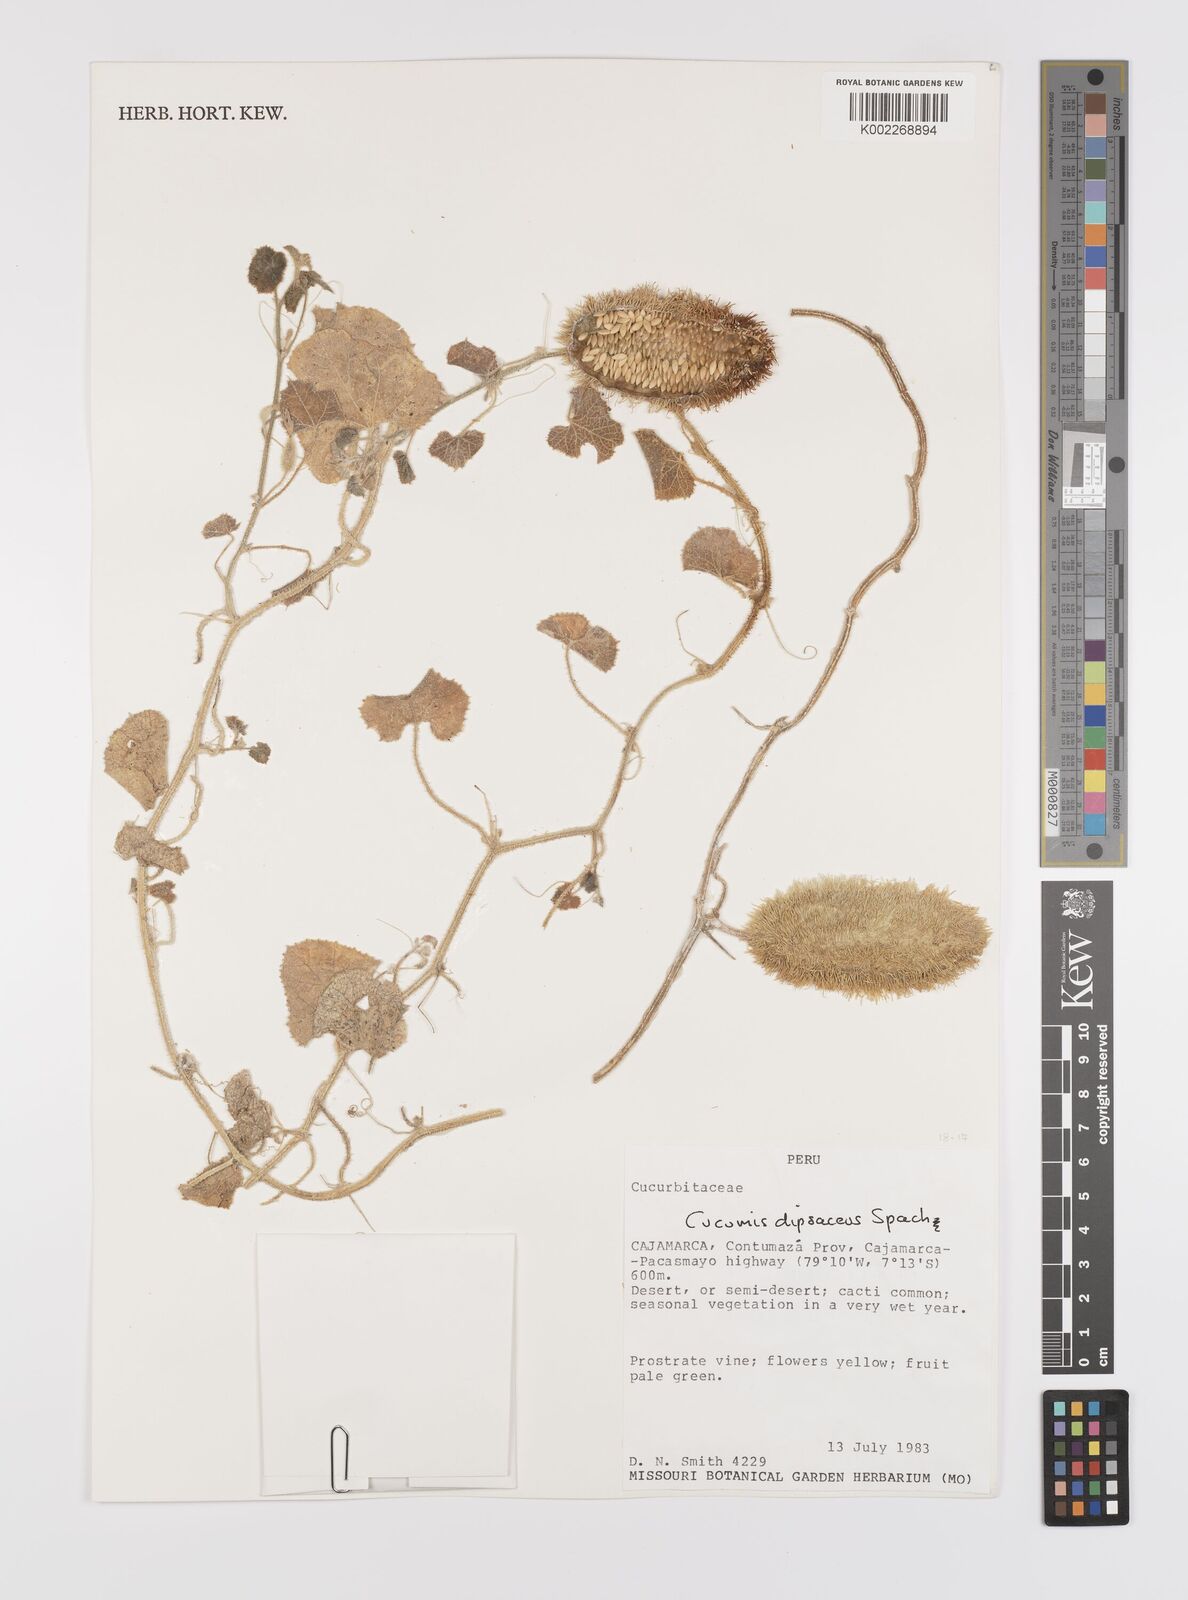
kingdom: Plantae
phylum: Tracheophyta
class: Magnoliopsida
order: Cucurbitales
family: Cucurbitaceae
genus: Cucumis
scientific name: Cucumis
